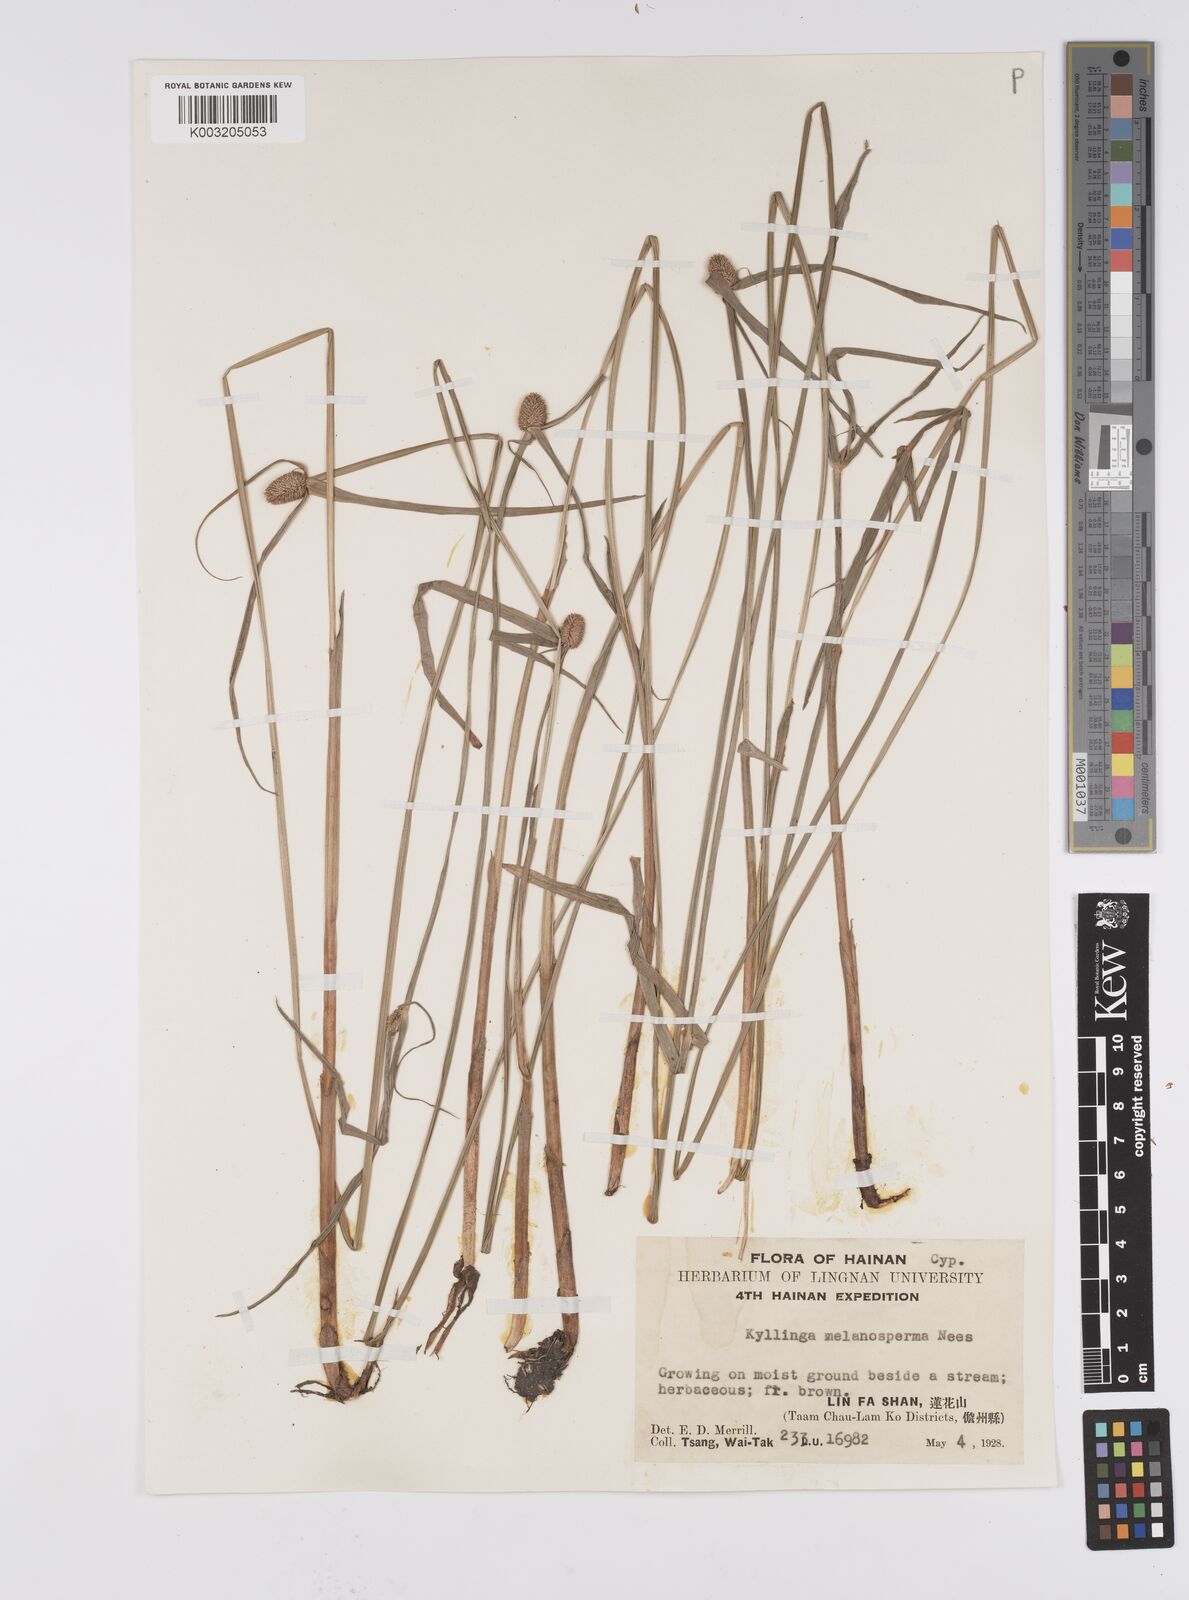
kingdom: Plantae
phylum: Tracheophyta
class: Liliopsida
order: Poales
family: Cyperaceae
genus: Cyperus
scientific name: Cyperus melanospermus
